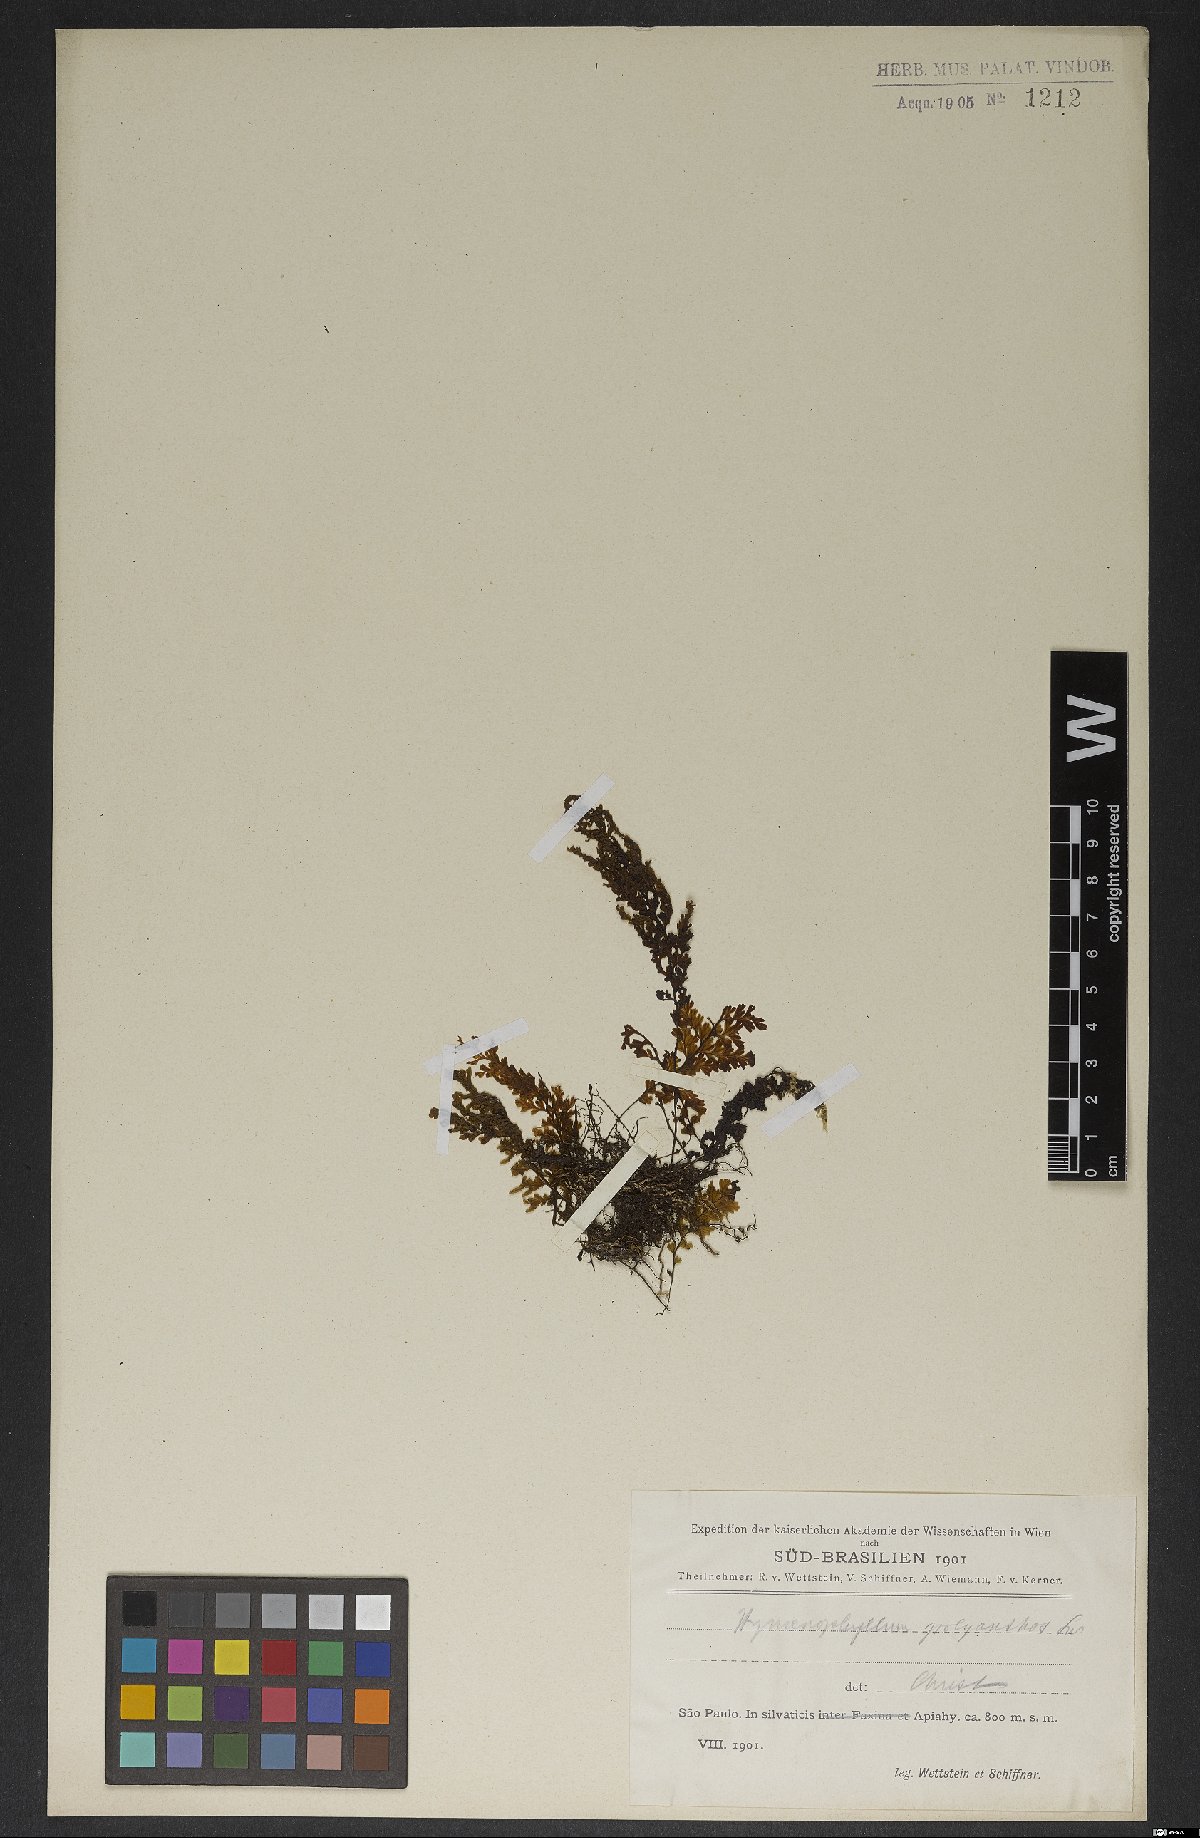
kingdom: Plantae
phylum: Tracheophyta
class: Polypodiopsida
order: Hymenophyllales
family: Hymenophyllaceae
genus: Hymenophyllum
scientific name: Hymenophyllum polyanthos
